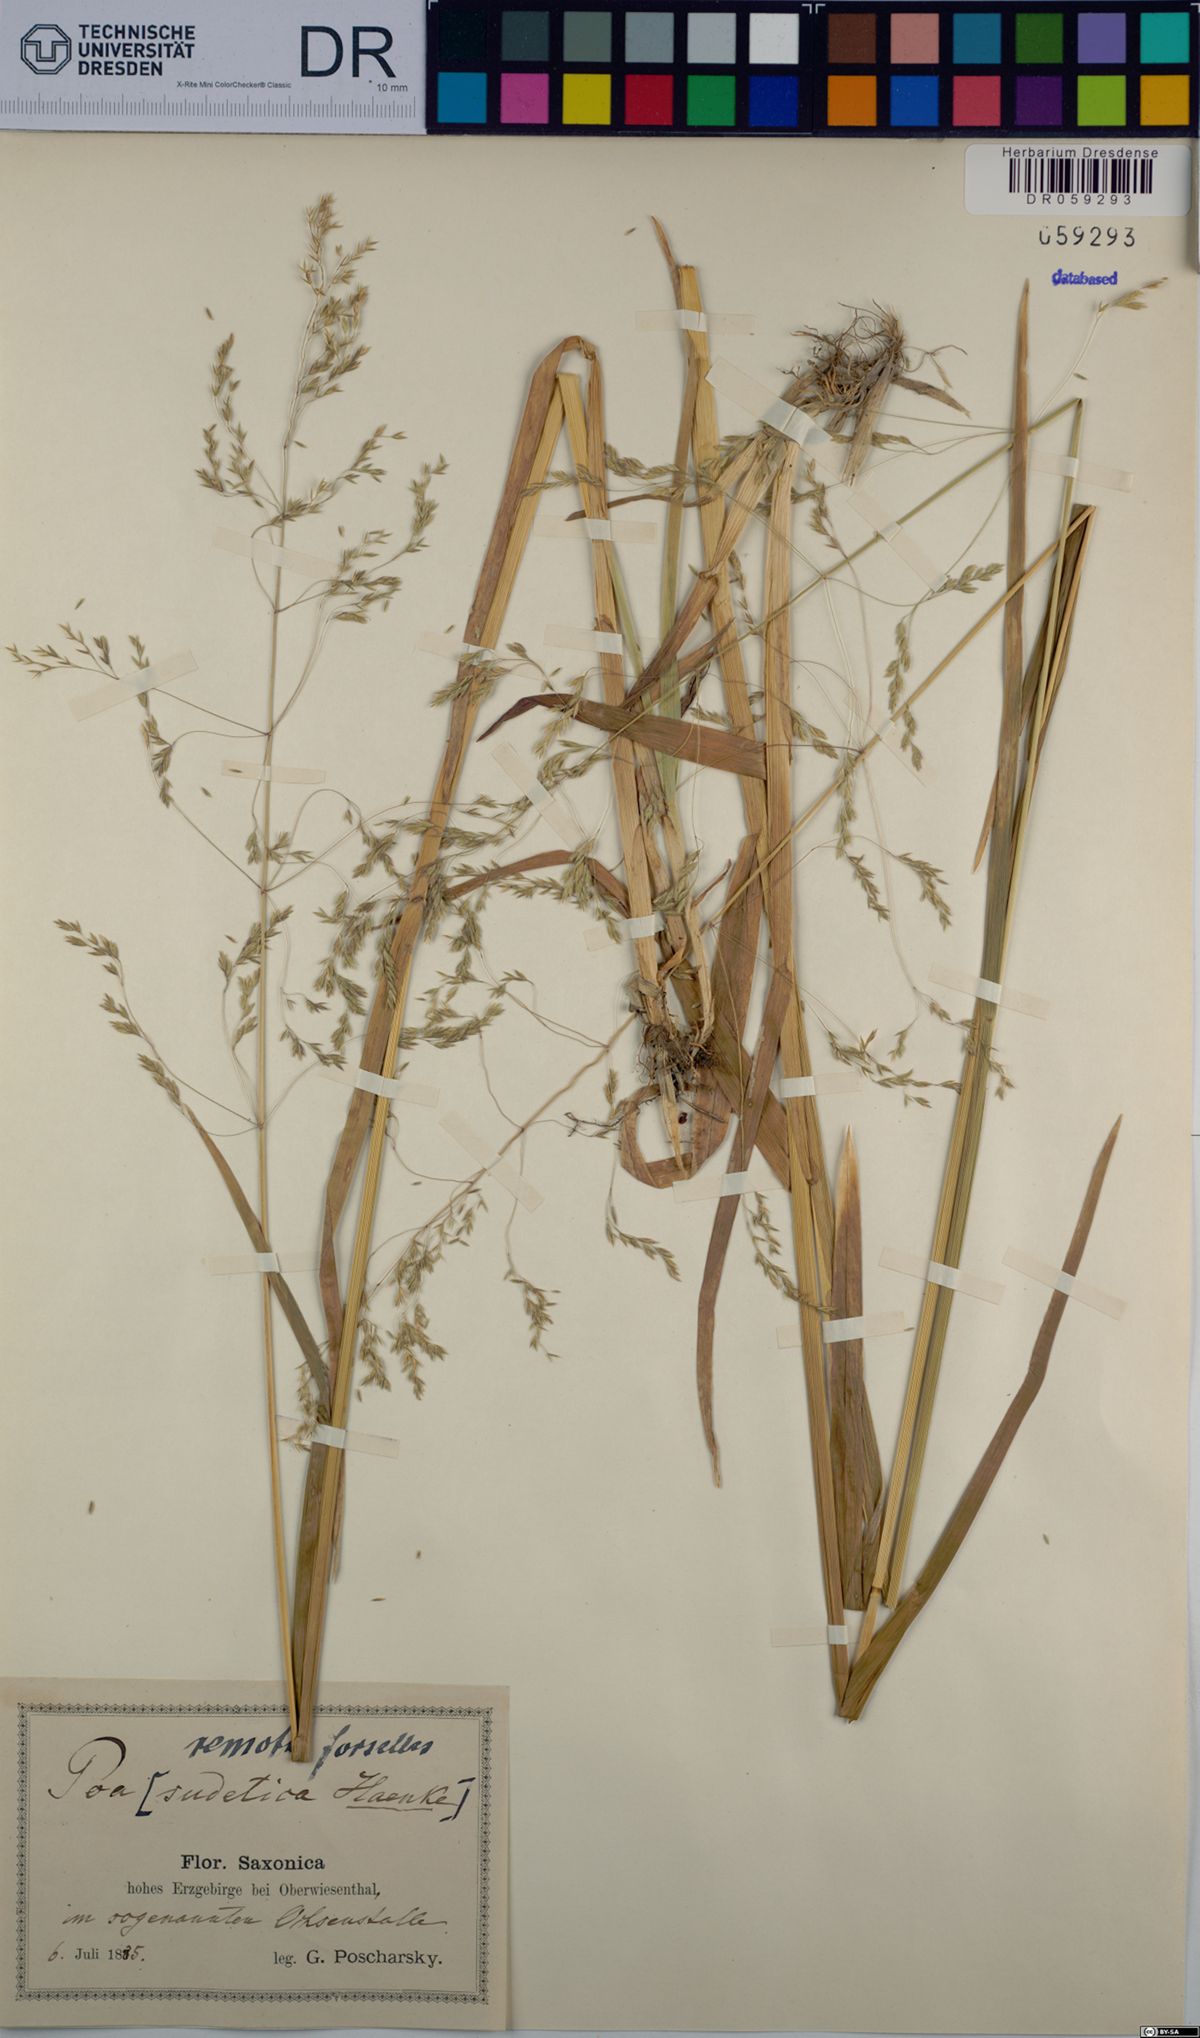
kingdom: Plantae
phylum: Tracheophyta
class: Liliopsida
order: Poales
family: Poaceae
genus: Poa
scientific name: Poa remota
